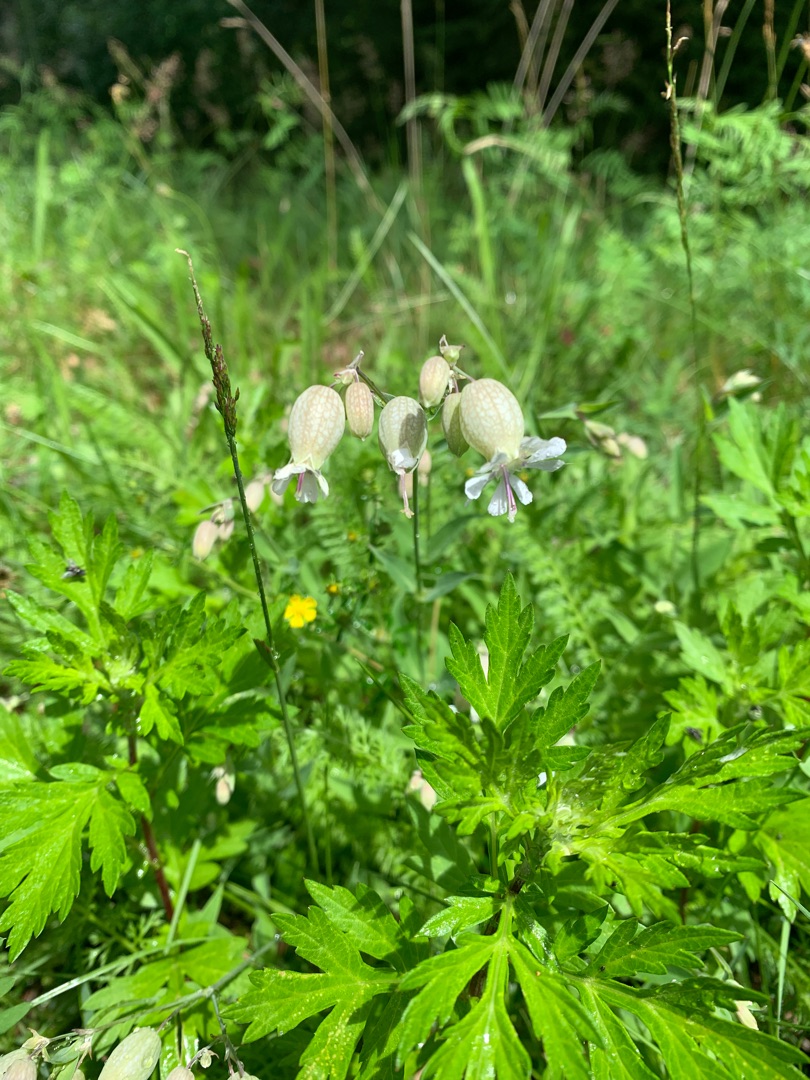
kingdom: Plantae
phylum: Tracheophyta
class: Magnoliopsida
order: Caryophyllales
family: Caryophyllaceae
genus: Silene
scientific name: Silene vulgaris
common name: Blæresmælde
